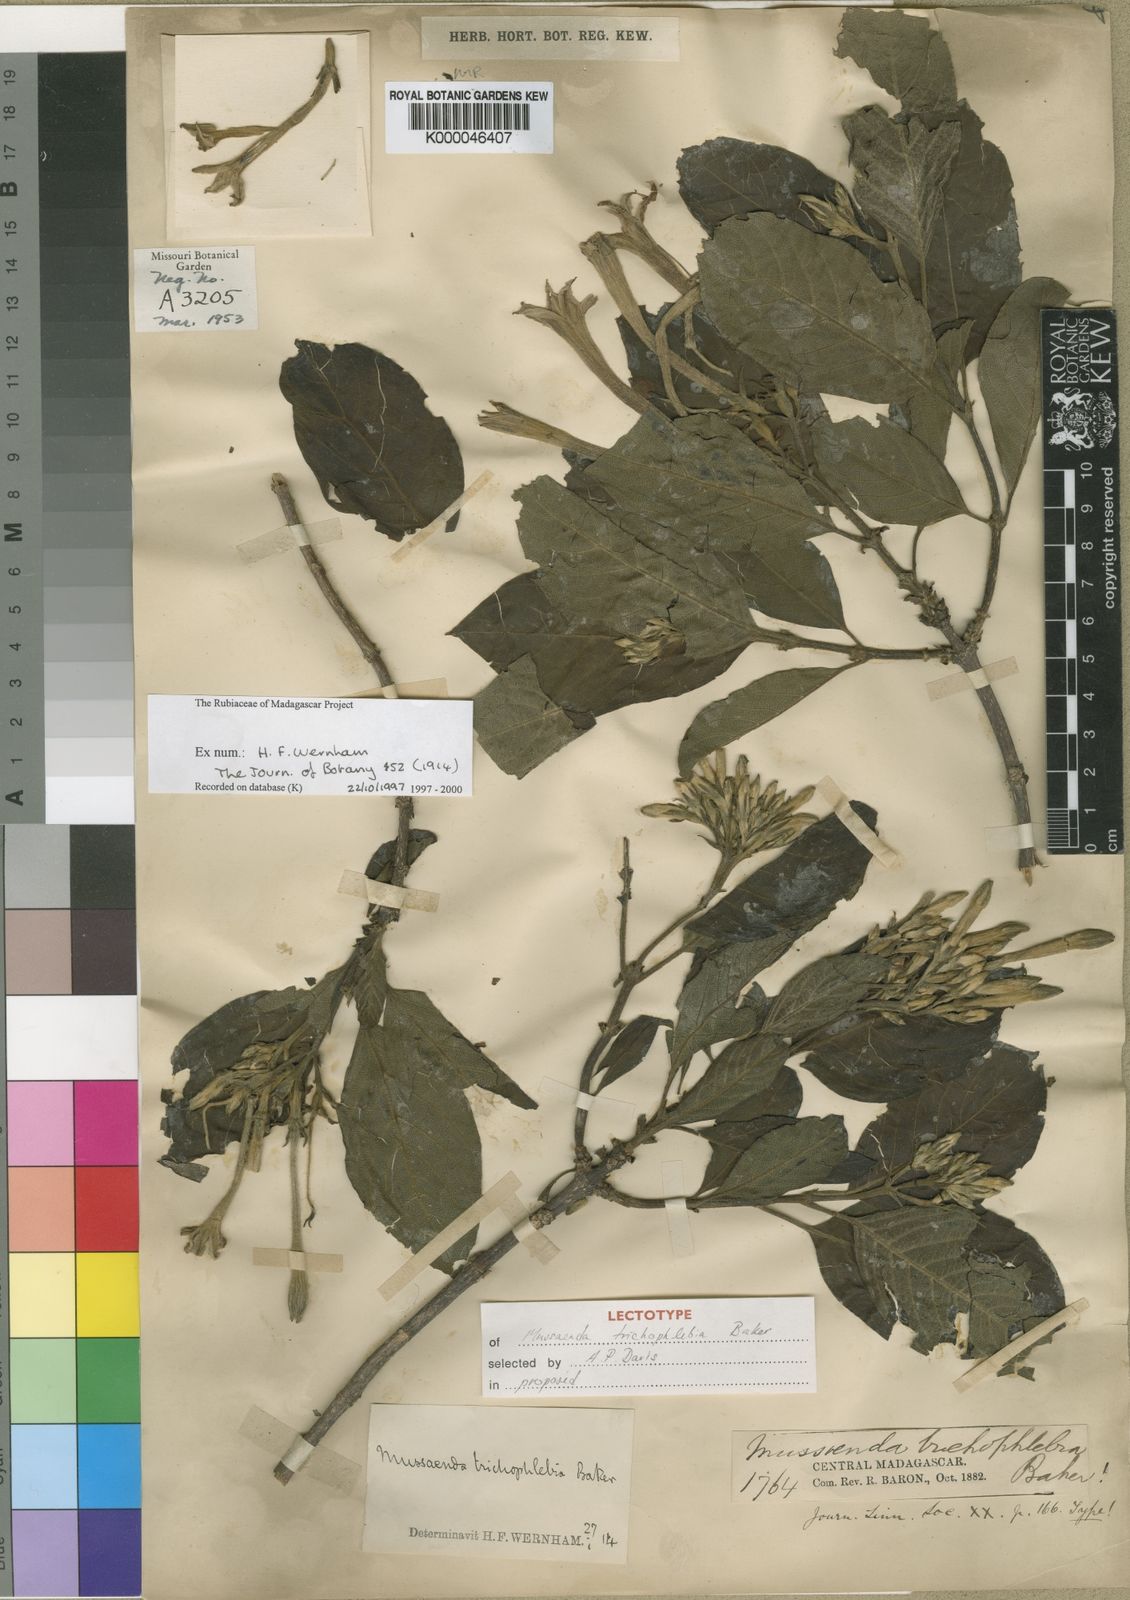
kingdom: Plantae
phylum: Tracheophyta
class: Magnoliopsida
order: Gentianales
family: Rubiaceae
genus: Bremeria
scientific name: Bremeria trichophlebia
